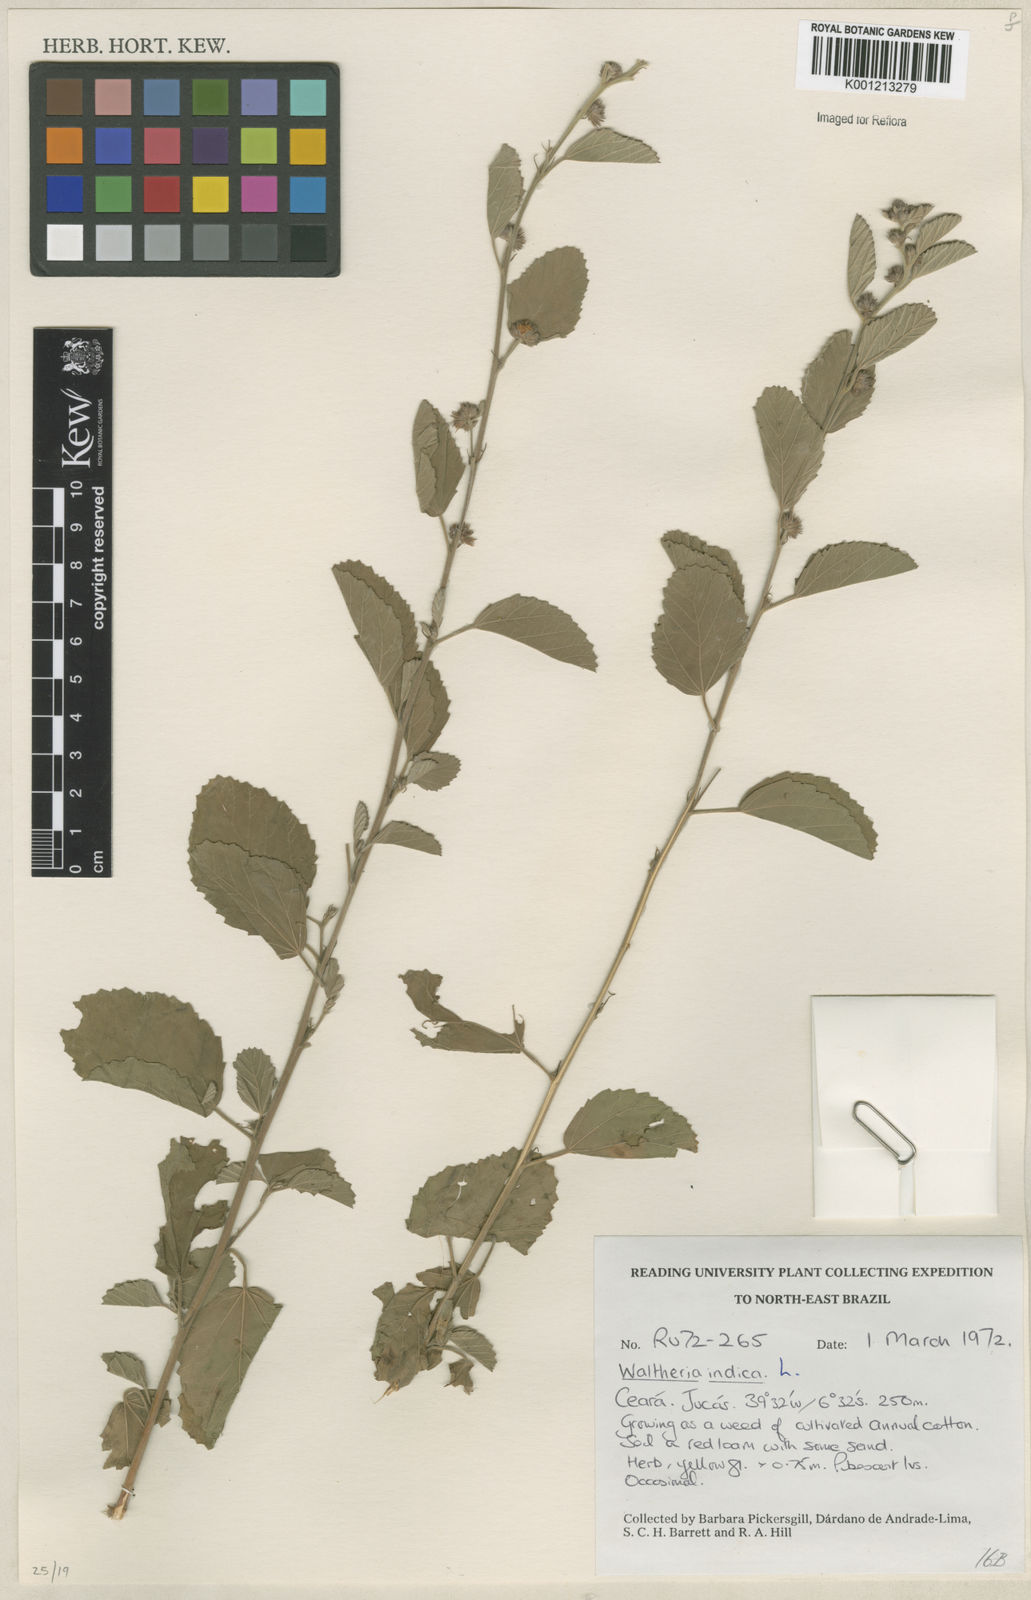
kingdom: Plantae
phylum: Tracheophyta
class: Magnoliopsida
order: Malvales
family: Malvaceae
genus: Waltheria
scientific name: Waltheria indica
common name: Leather-coat
